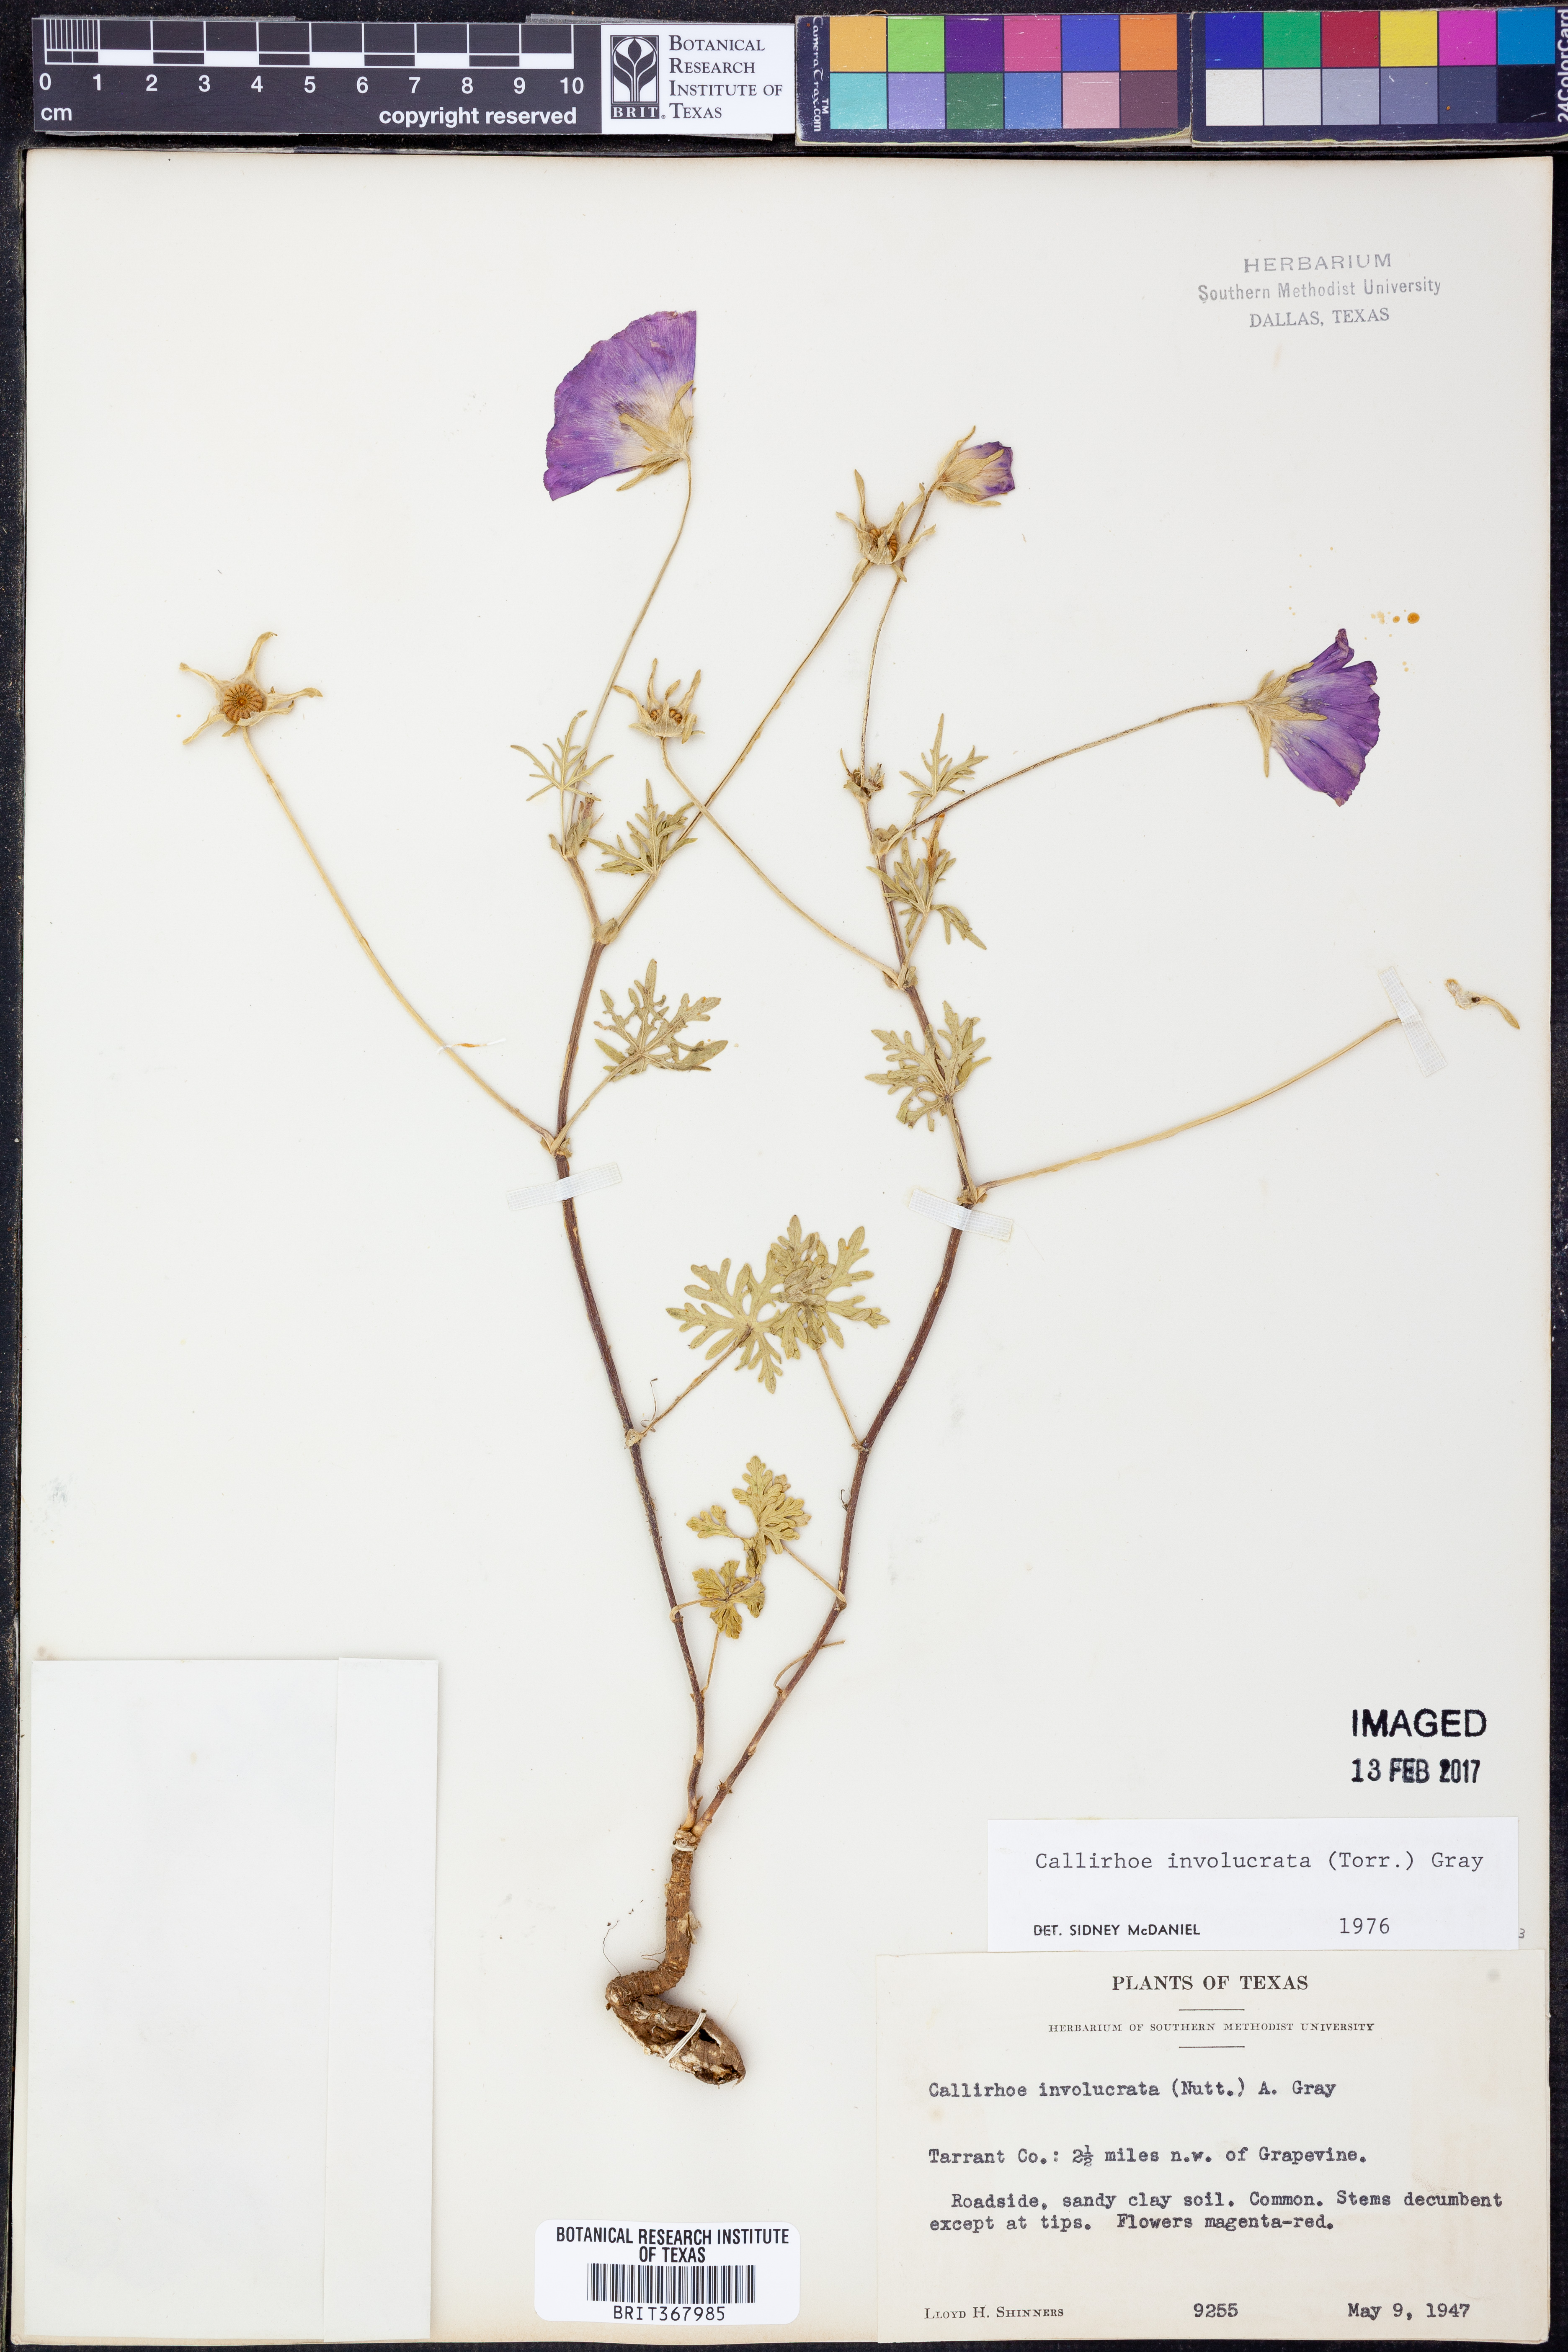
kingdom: Plantae
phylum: Tracheophyta
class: Magnoliopsida
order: Malvales
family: Malvaceae
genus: Callirhoe
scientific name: Callirhoe involucrata
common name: Purple poppy-mallow
